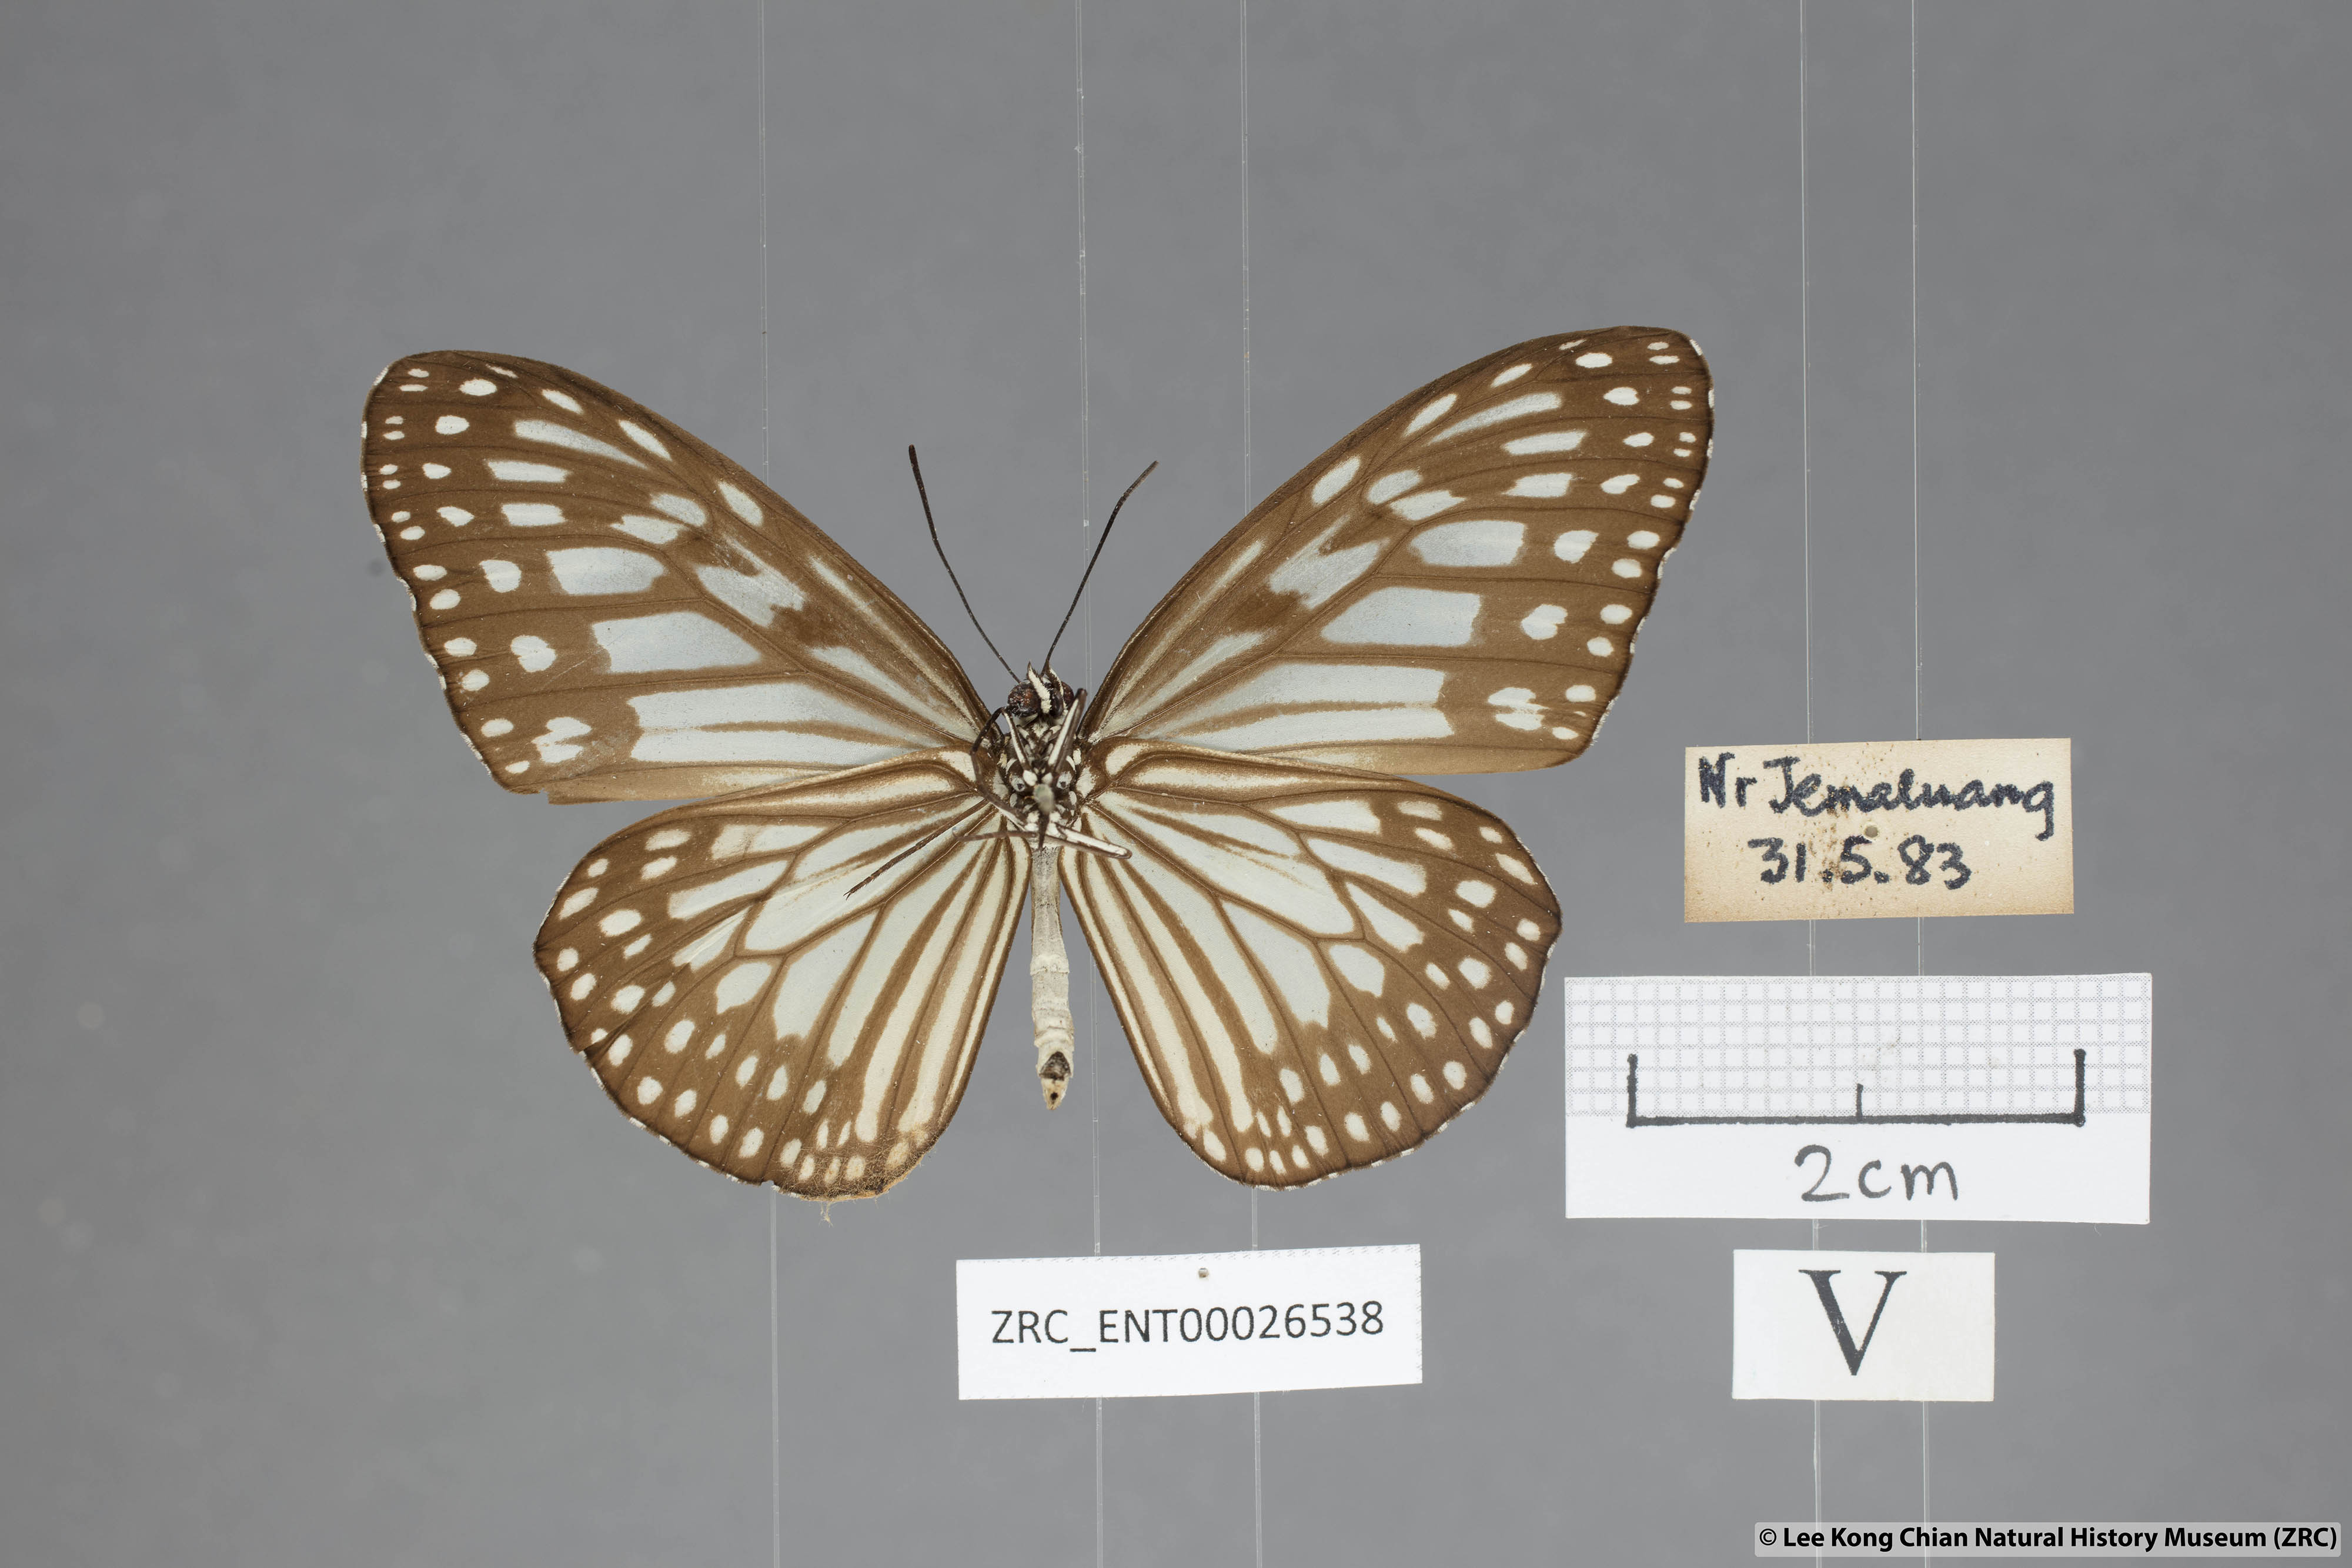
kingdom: Animalia
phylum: Arthropoda
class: Insecta
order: Lepidoptera
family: Nymphalidae
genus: Ideopsis
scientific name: Ideopsis juventa
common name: Grey glassy tiger
